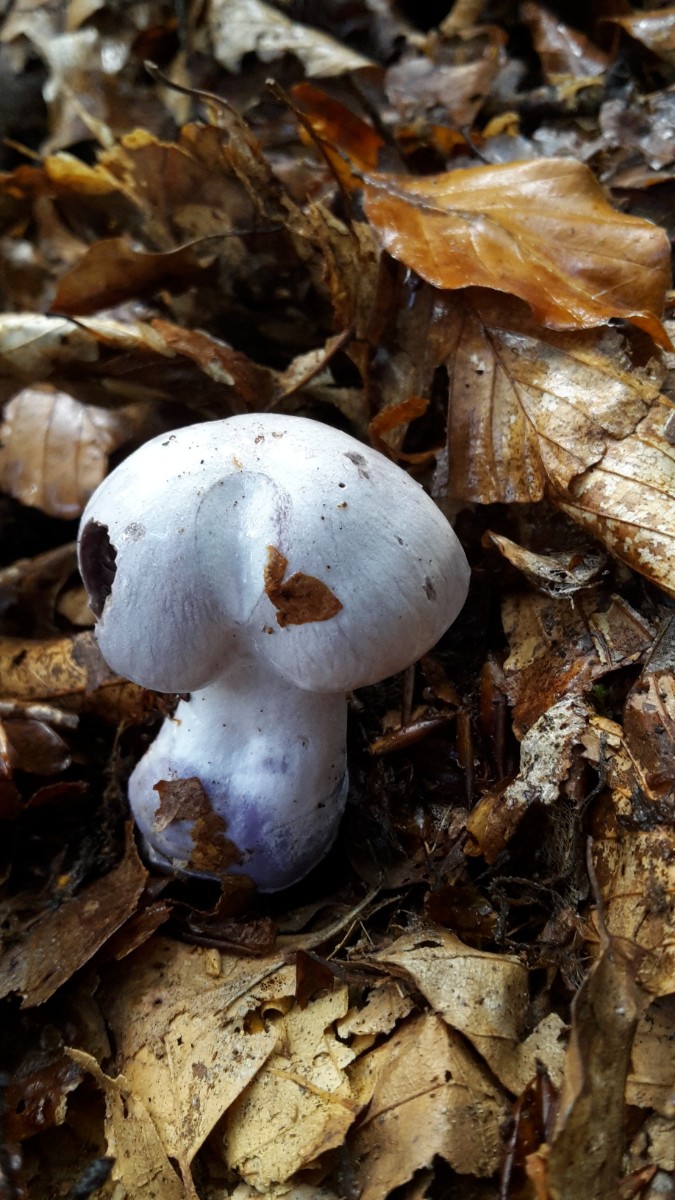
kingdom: Fungi
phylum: Basidiomycota
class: Agaricomycetes
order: Agaricales
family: Cortinariaceae
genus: Cortinarius
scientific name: Cortinarius alboviolaceus
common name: lysviolet slørhat
